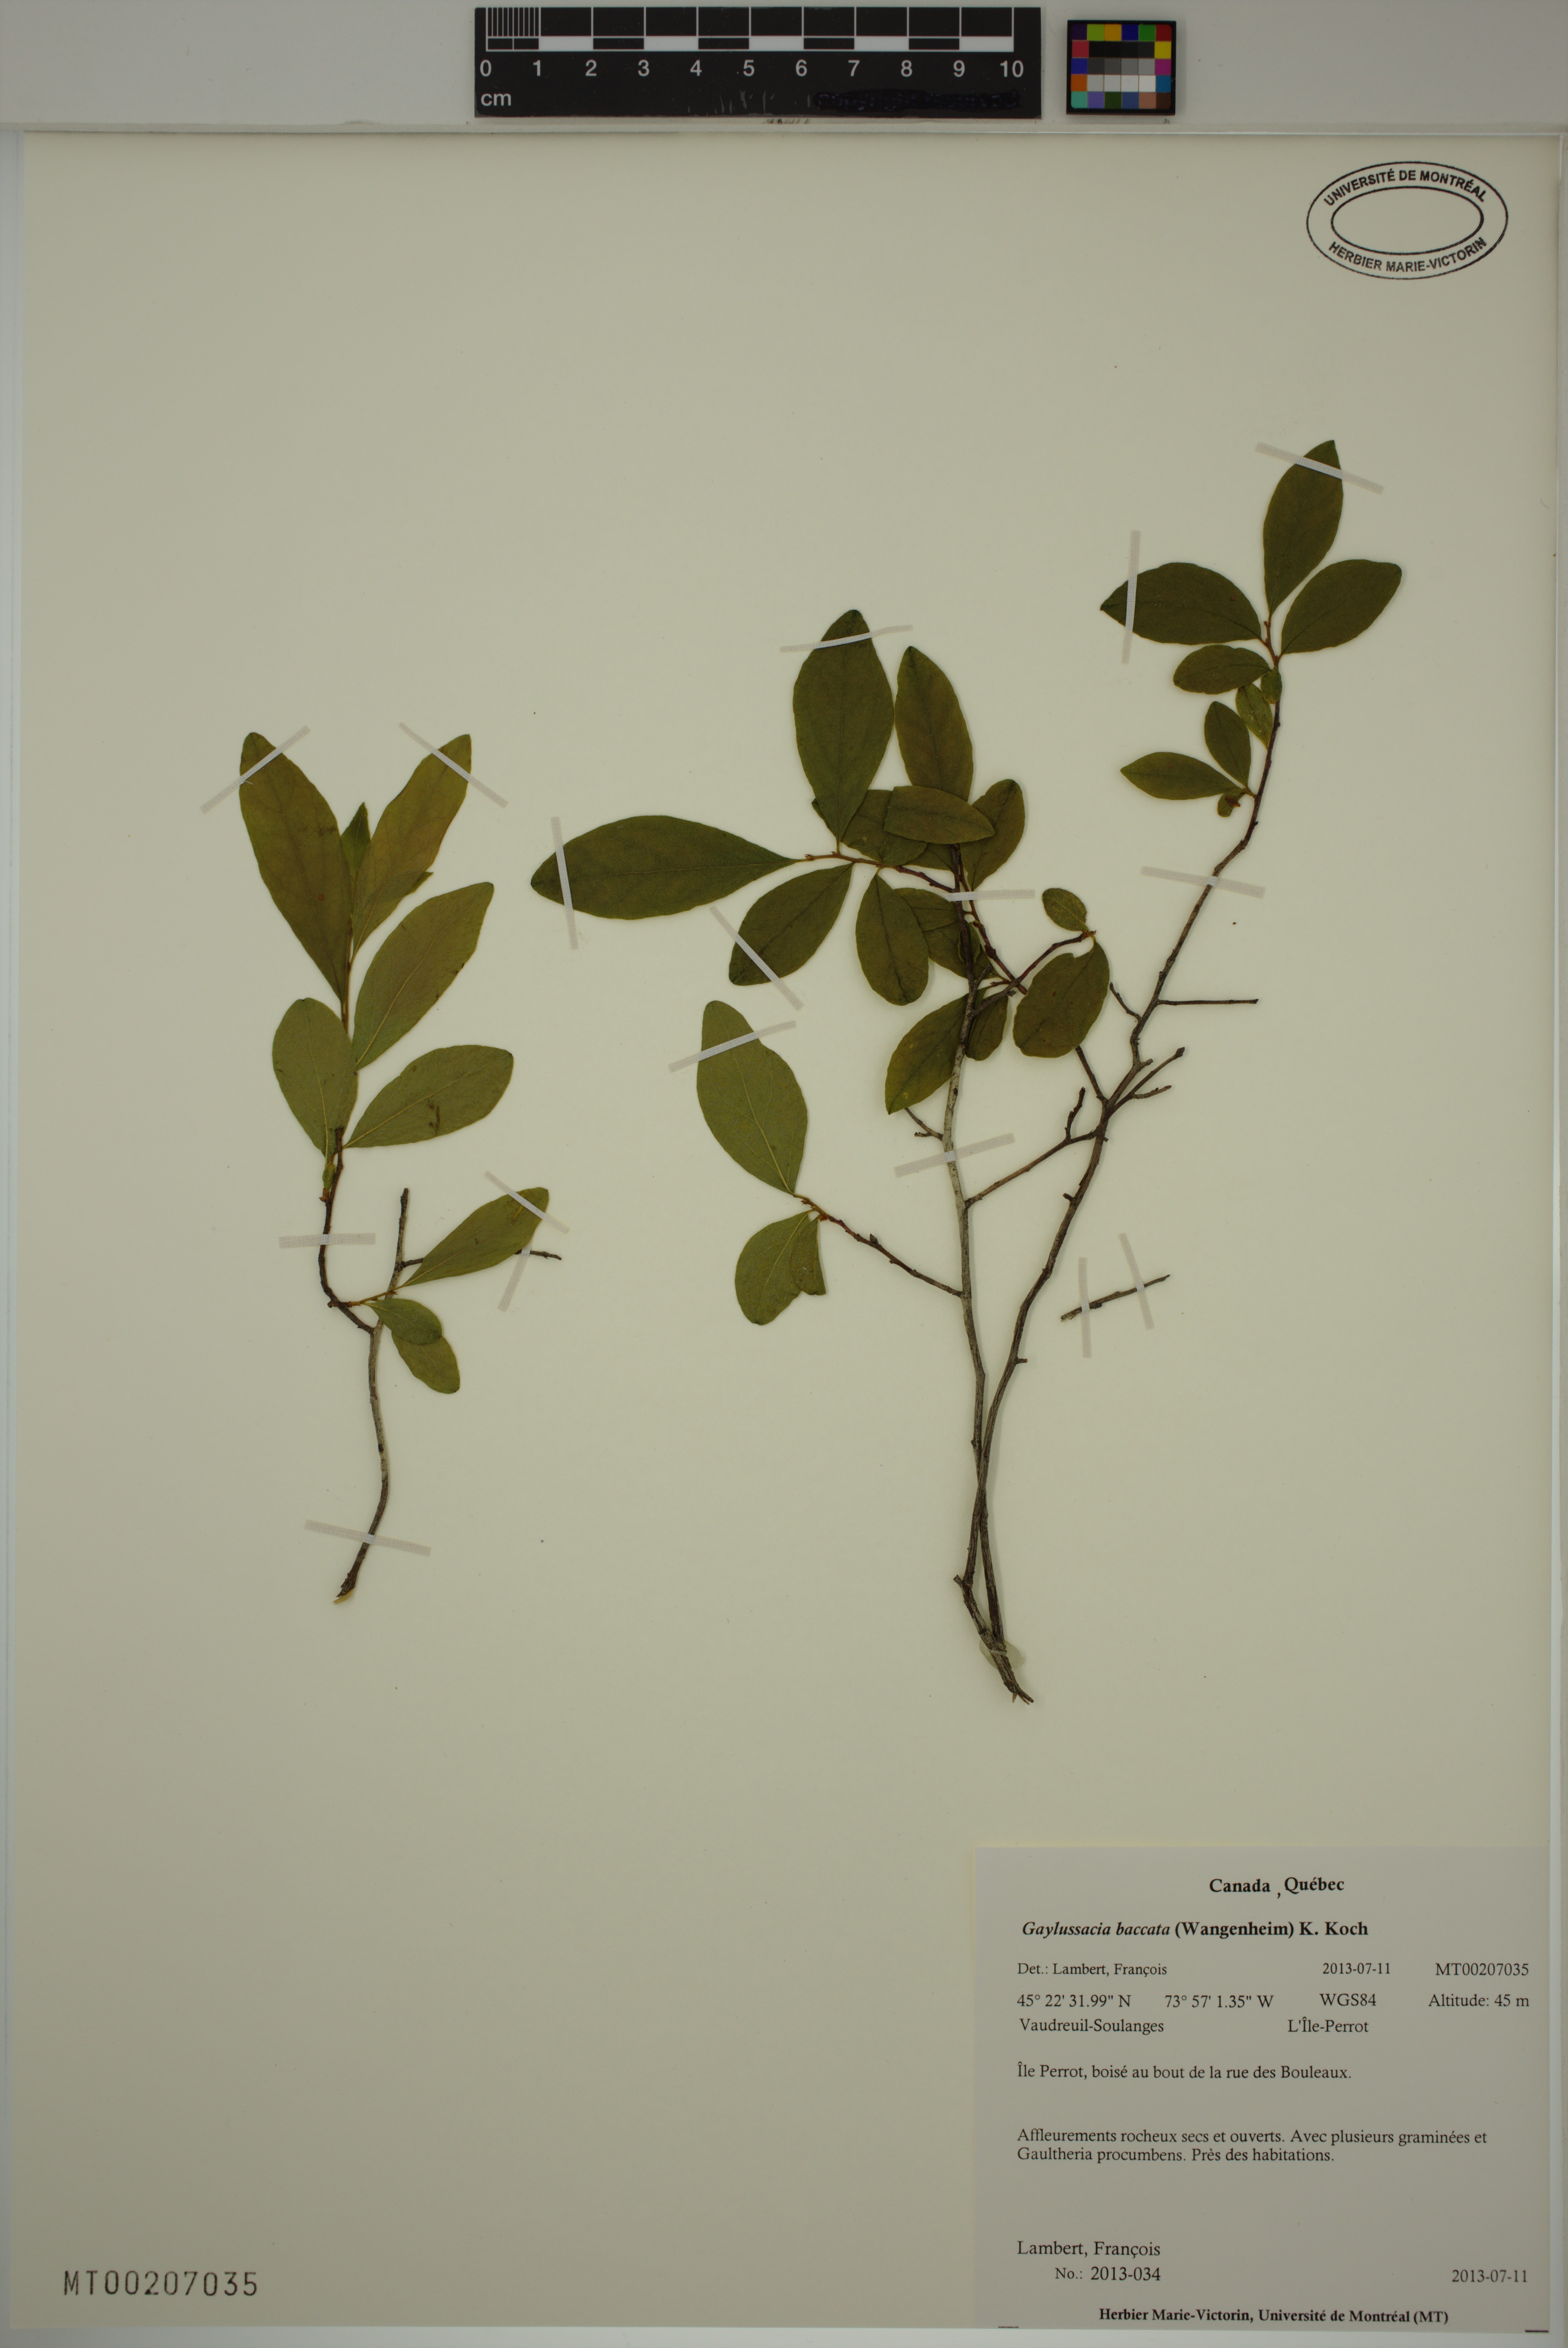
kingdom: Plantae
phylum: Tracheophyta
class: Magnoliopsida
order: Ericales
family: Ericaceae
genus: Gaylussacia
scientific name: Gaylussacia baccata
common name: Black huckleberry
